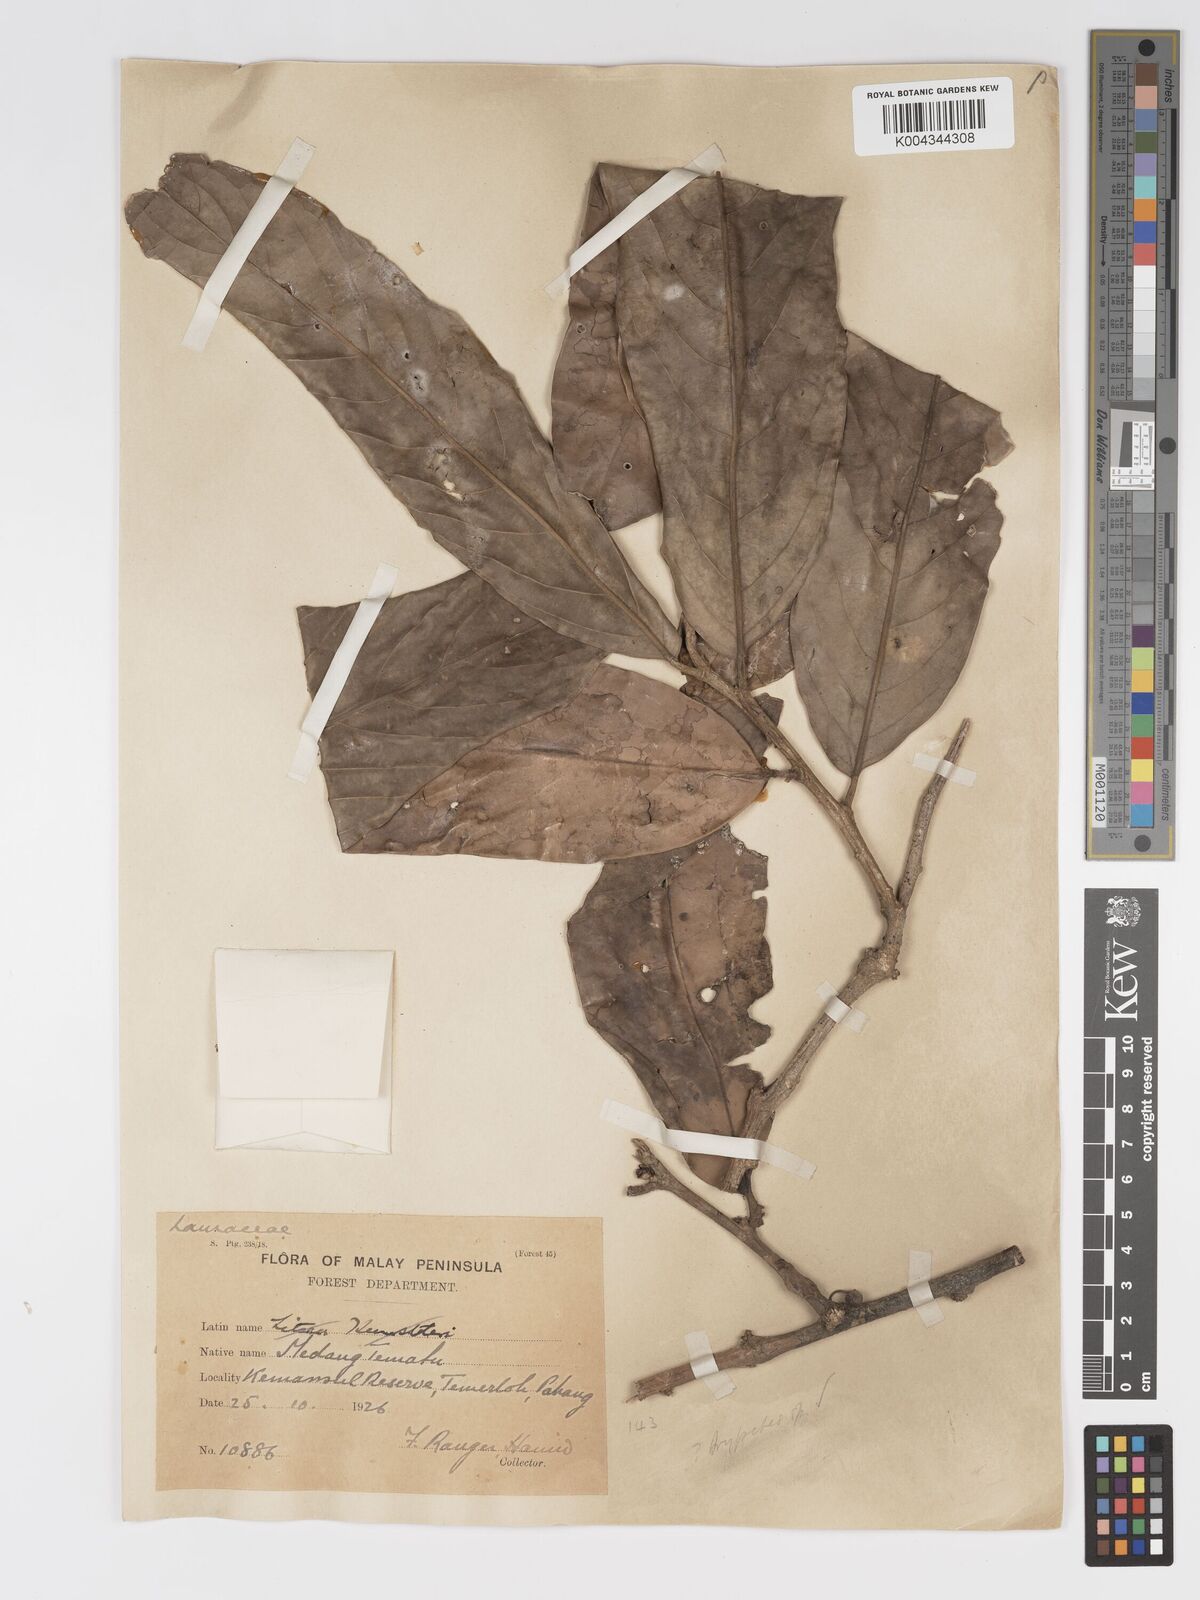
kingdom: Plantae
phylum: Tracheophyta
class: Magnoliopsida
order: Malpighiales
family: Putranjivaceae
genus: Drypetes
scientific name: Drypetes longifolia
